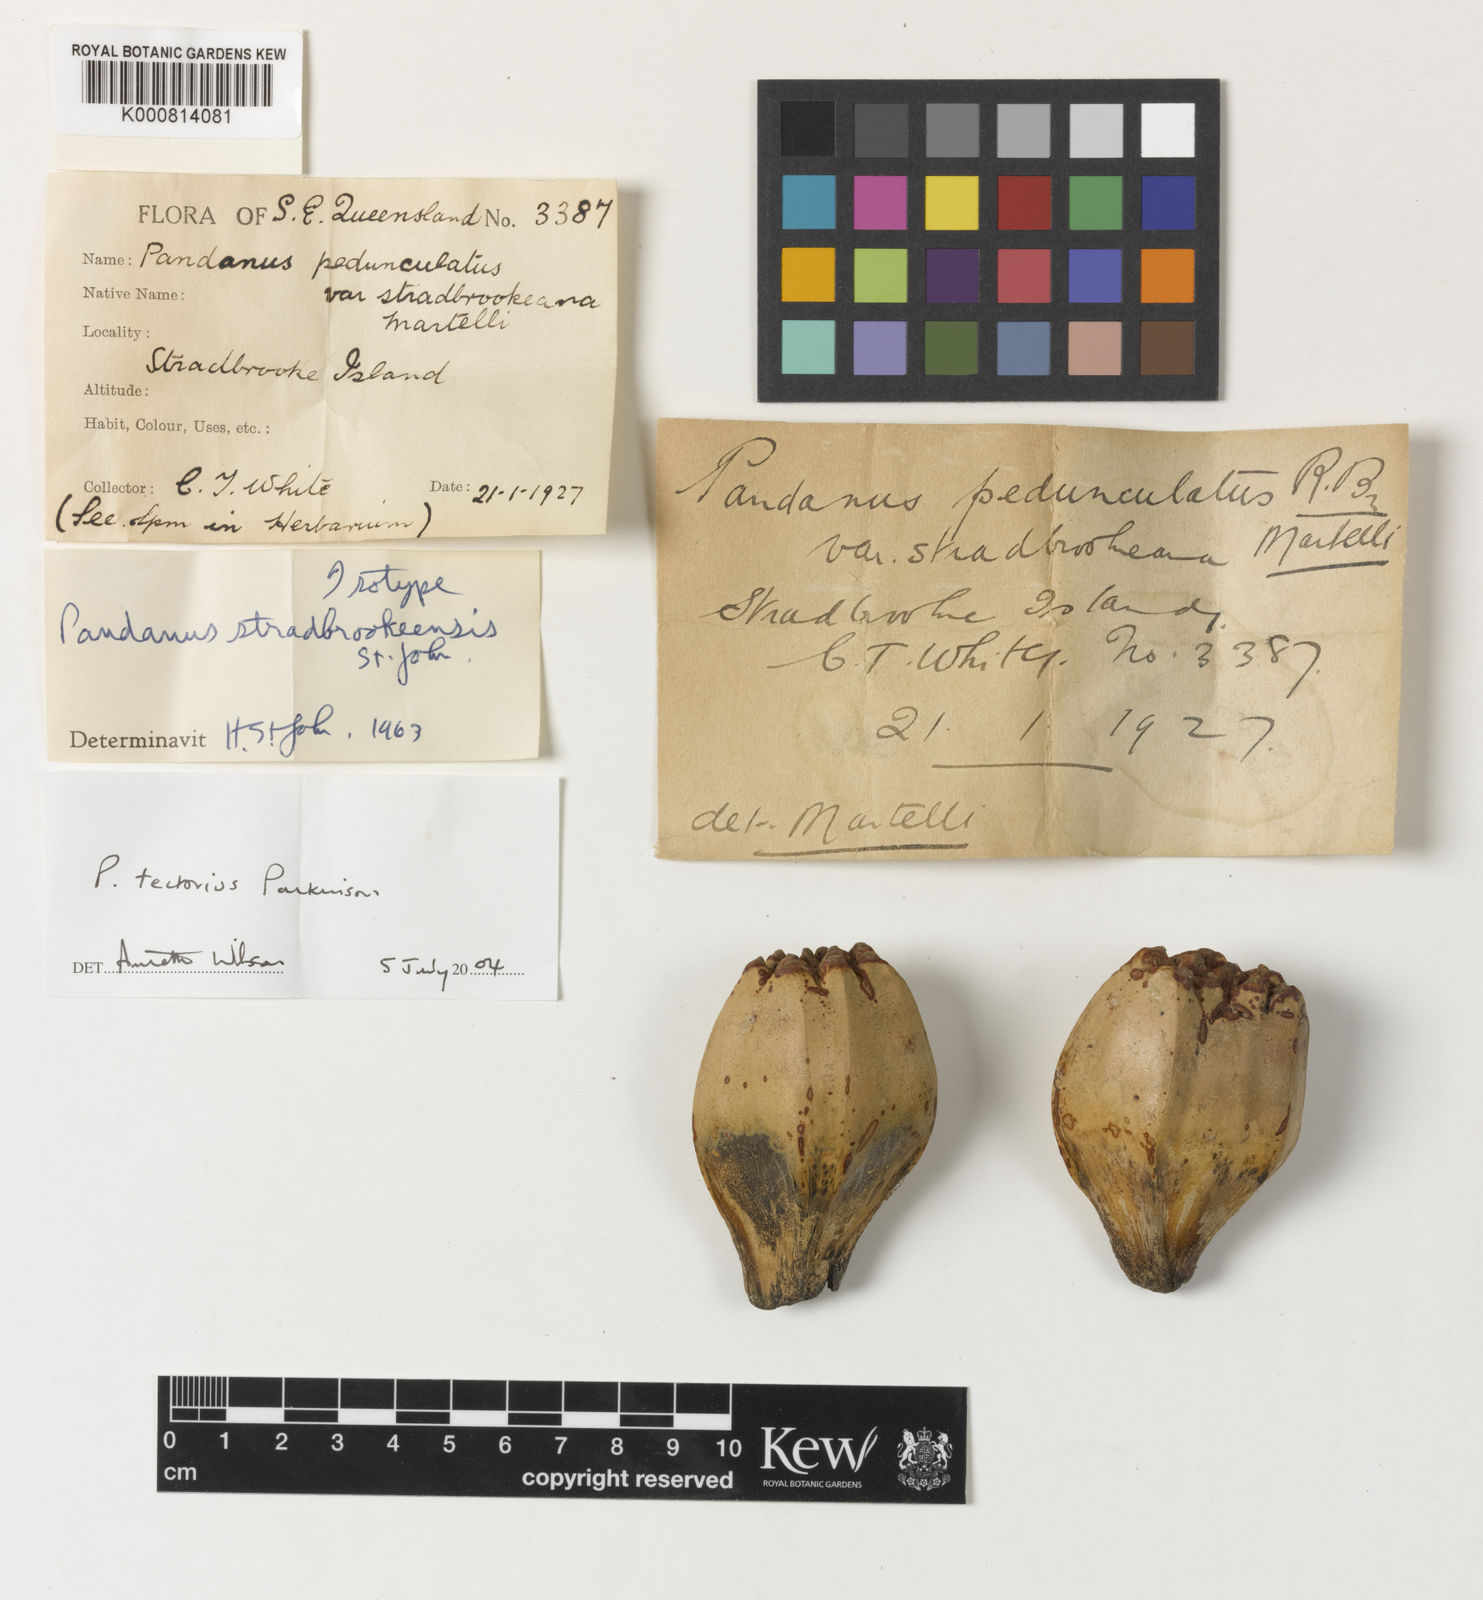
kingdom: Plantae
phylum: Tracheophyta
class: Liliopsida
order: Pandanales
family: Pandanaceae
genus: Pandanus
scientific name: Pandanus
